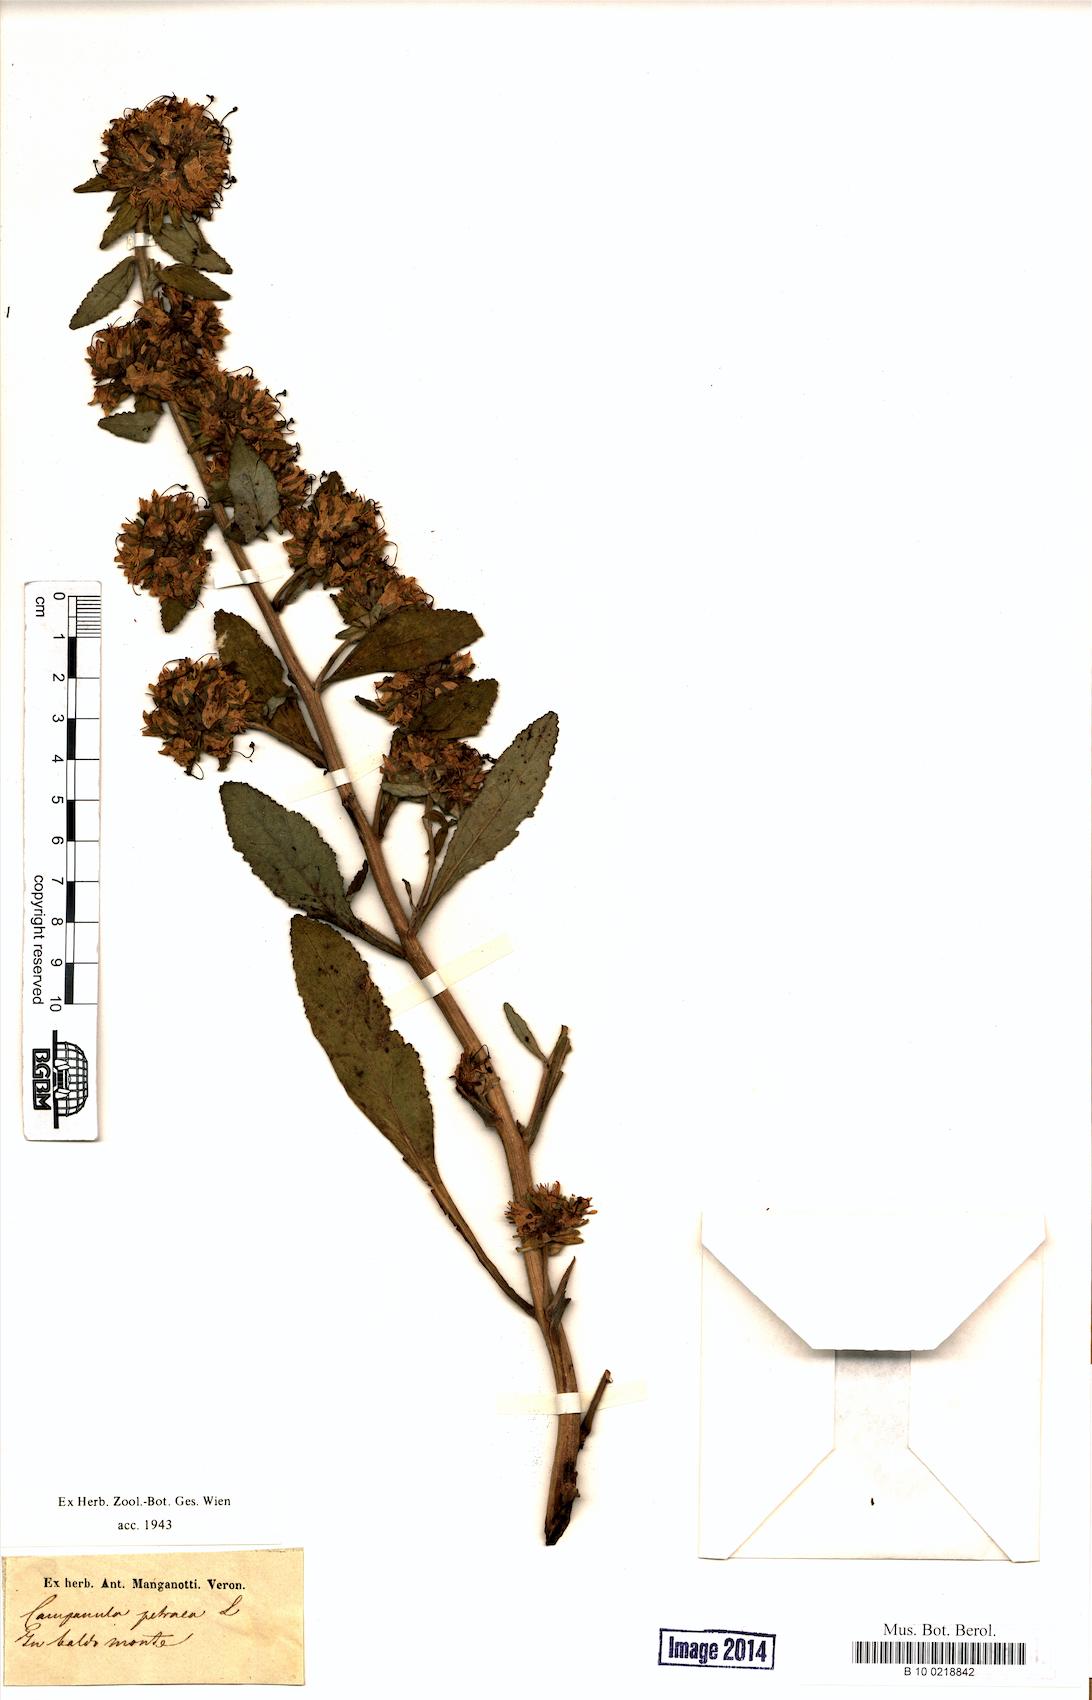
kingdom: Plantae
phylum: Tracheophyta
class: Magnoliopsida
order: Asterales
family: Campanulaceae
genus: Campanula
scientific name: Campanula petraea
